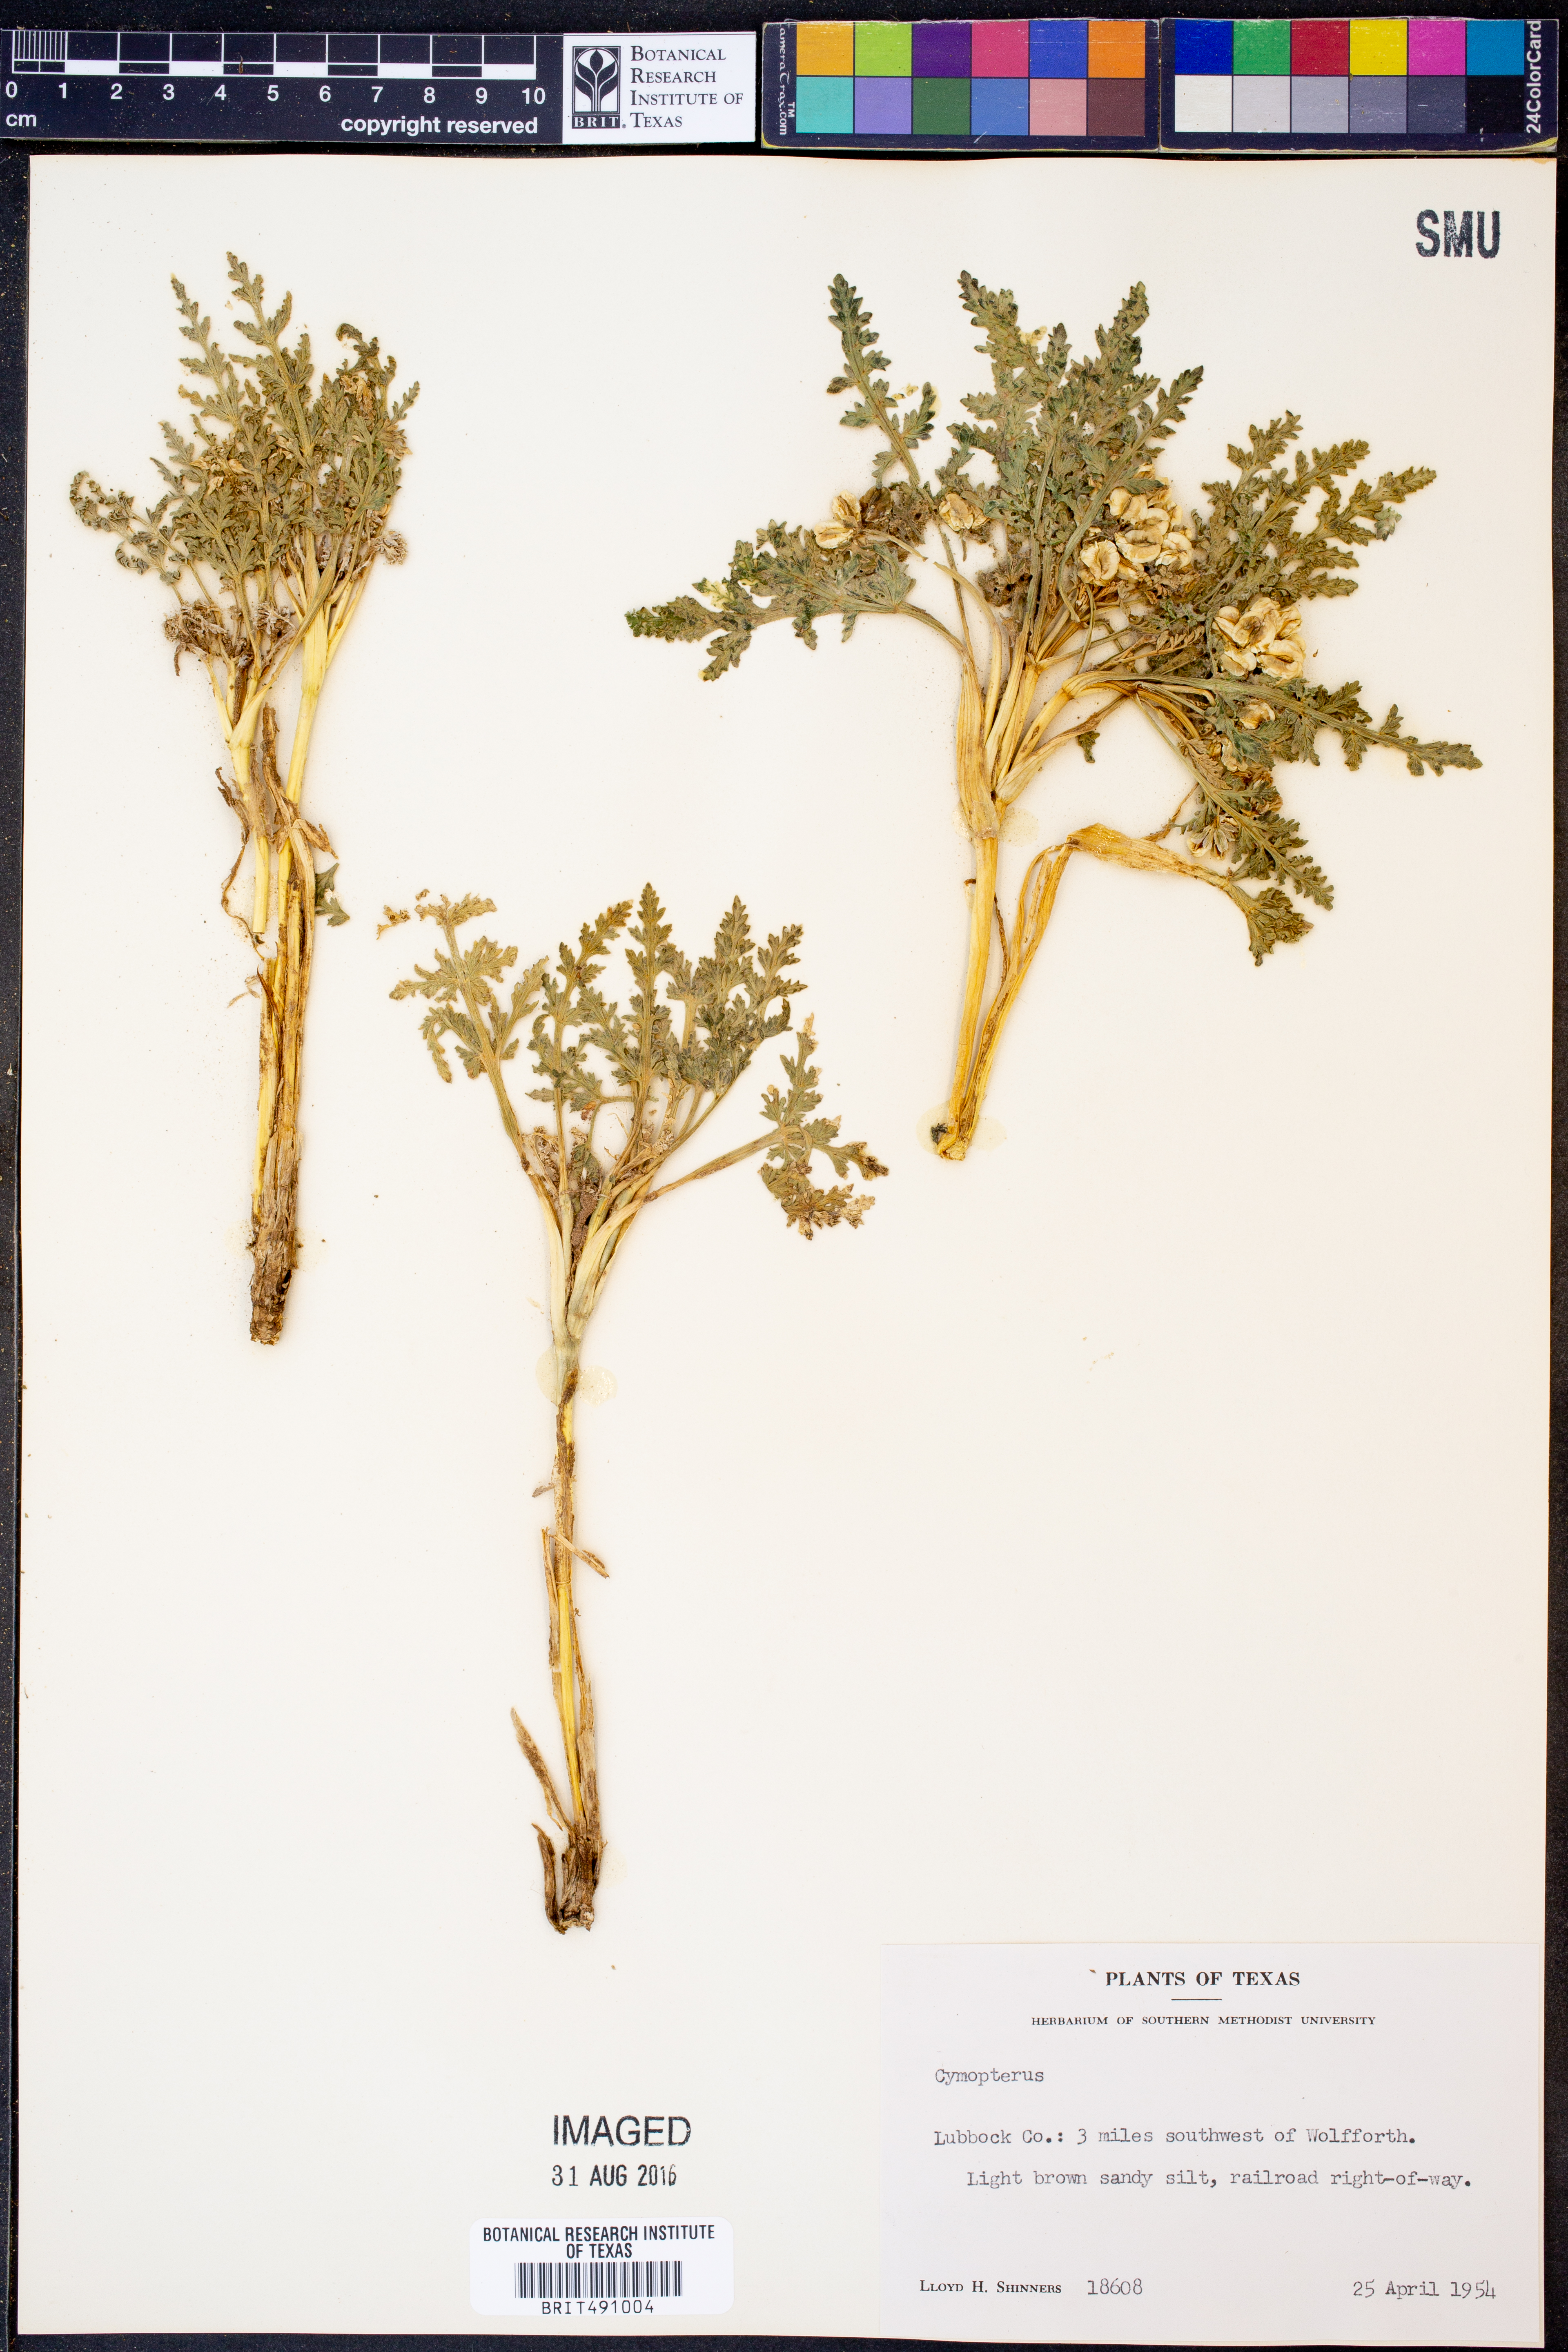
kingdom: Plantae
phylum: Tracheophyta
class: Magnoliopsida
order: Apiales
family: Apiaceae
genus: Vesper
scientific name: Vesper montanus
